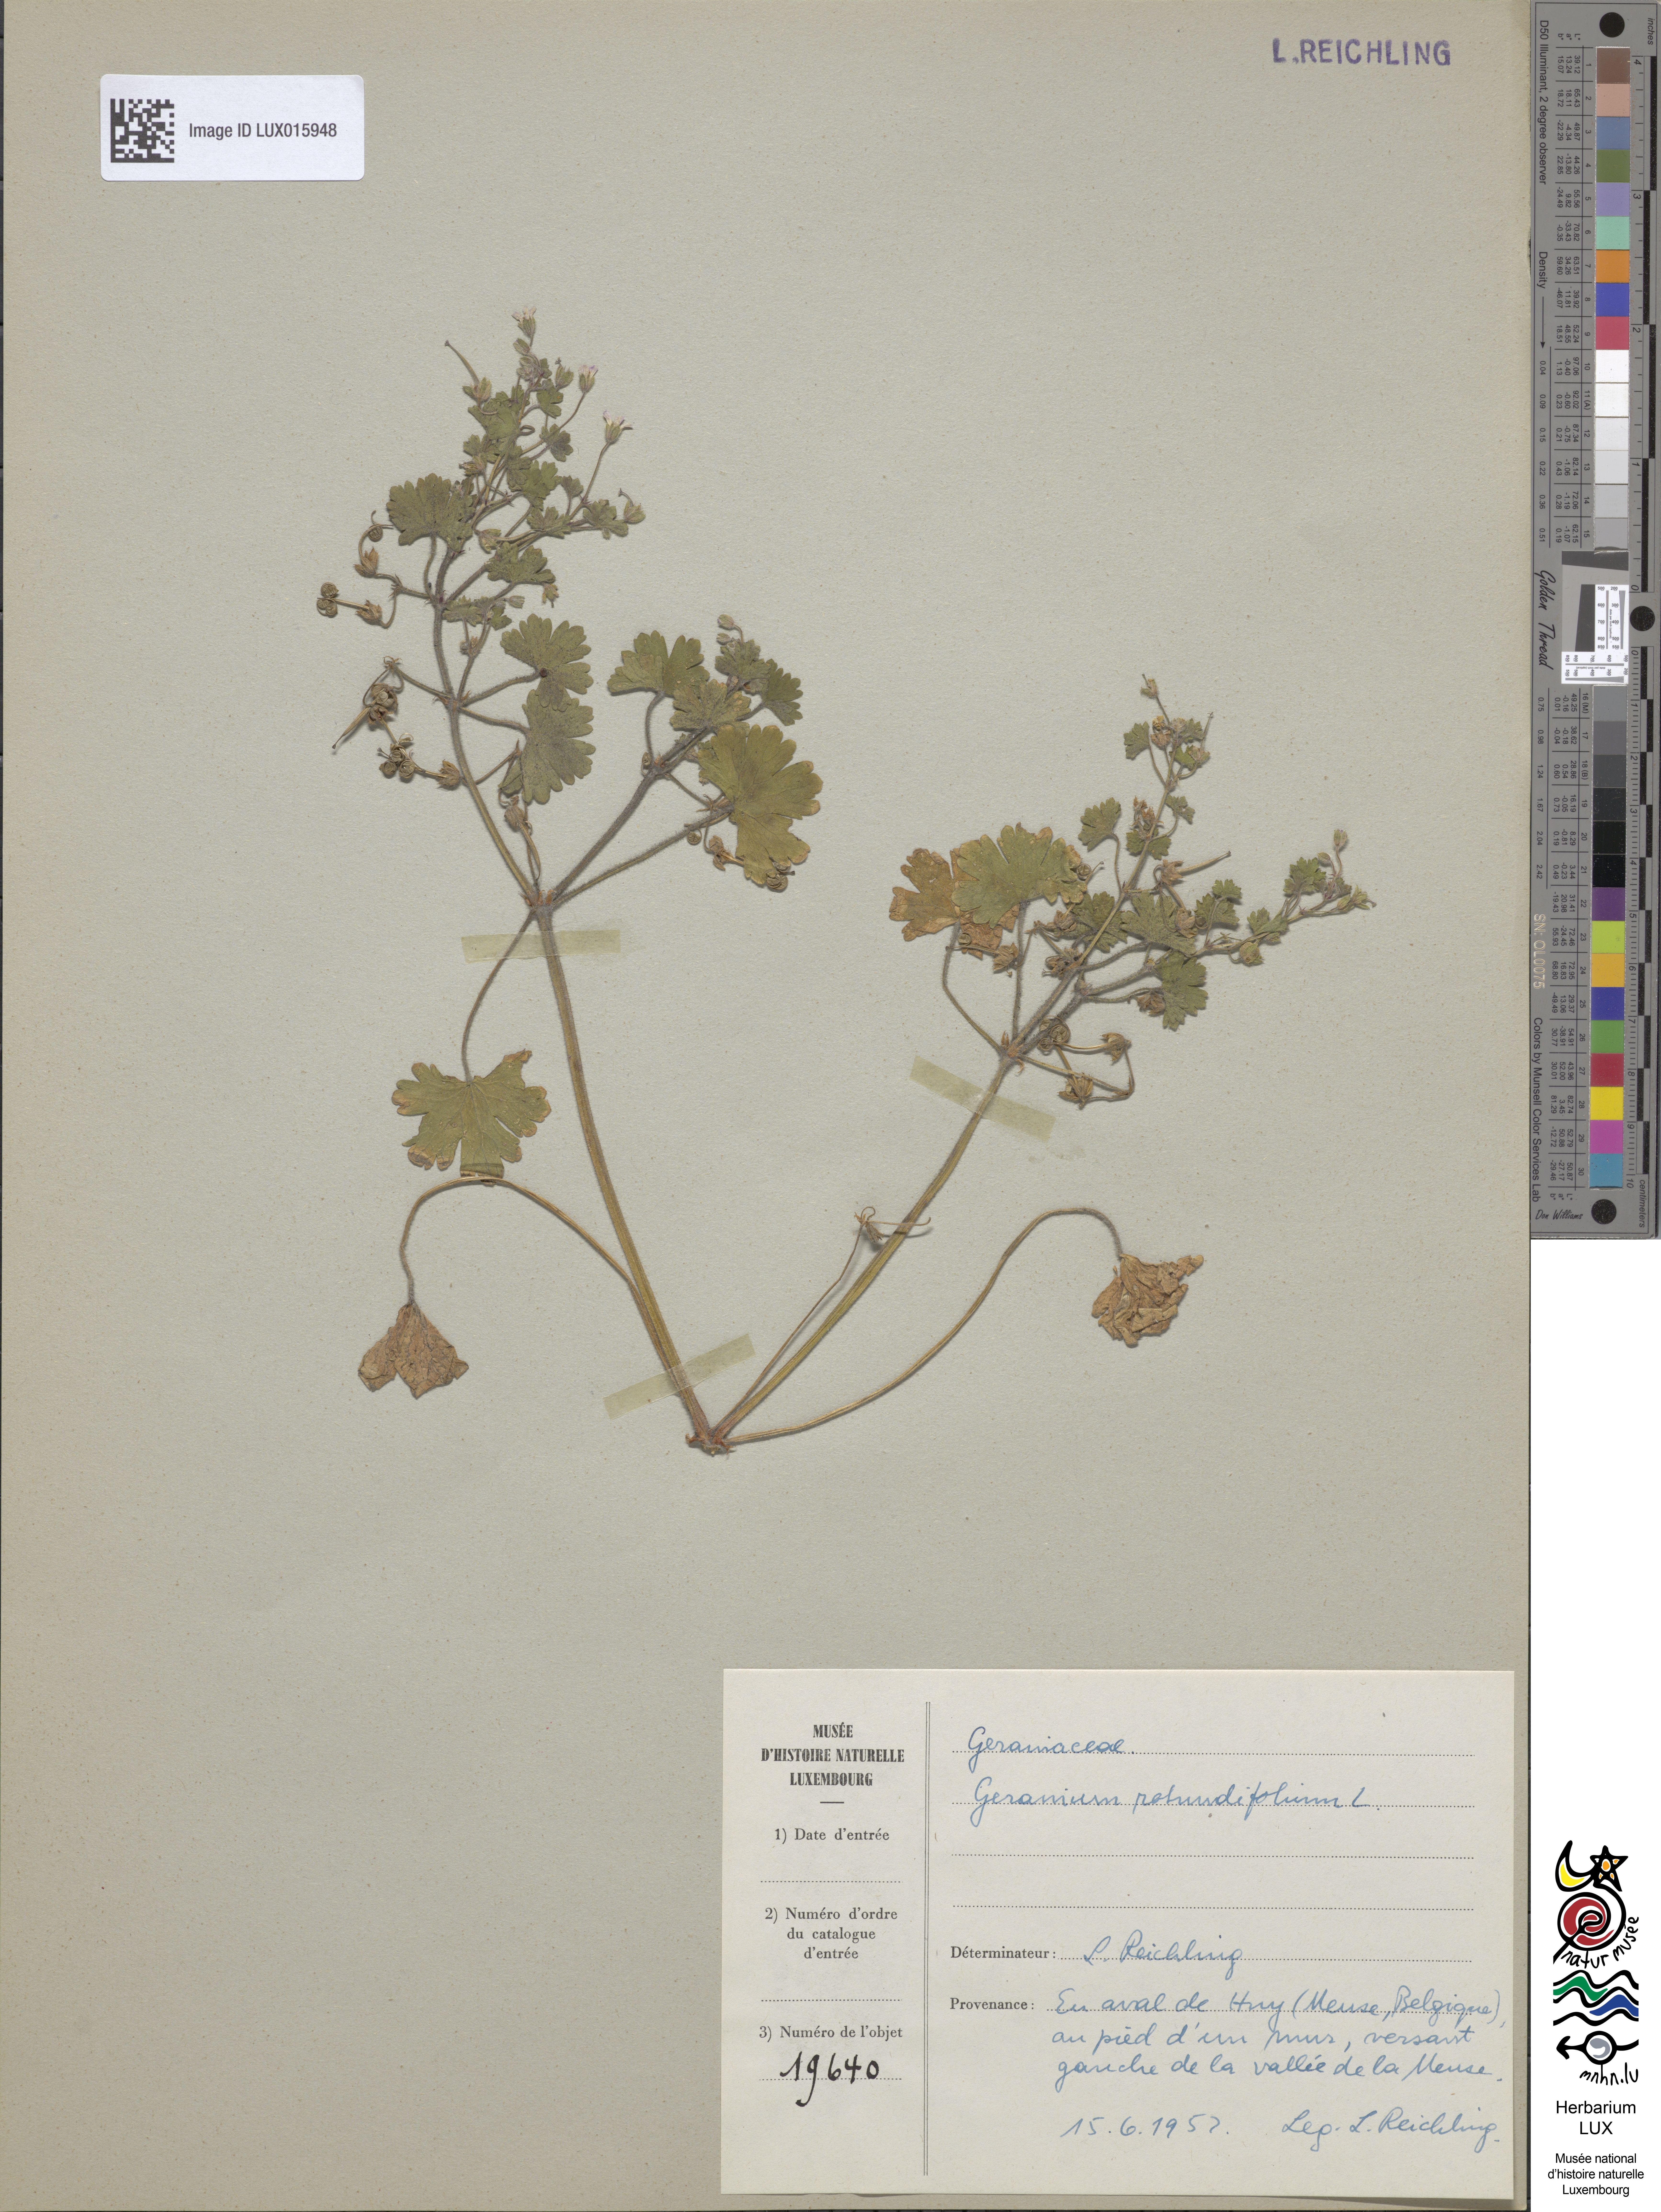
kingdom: Plantae
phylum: Tracheophyta
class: Magnoliopsida
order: Geraniales
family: Geraniaceae
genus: Geranium
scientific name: Geranium rotundifolium
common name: Round-leaved crane's-bill
